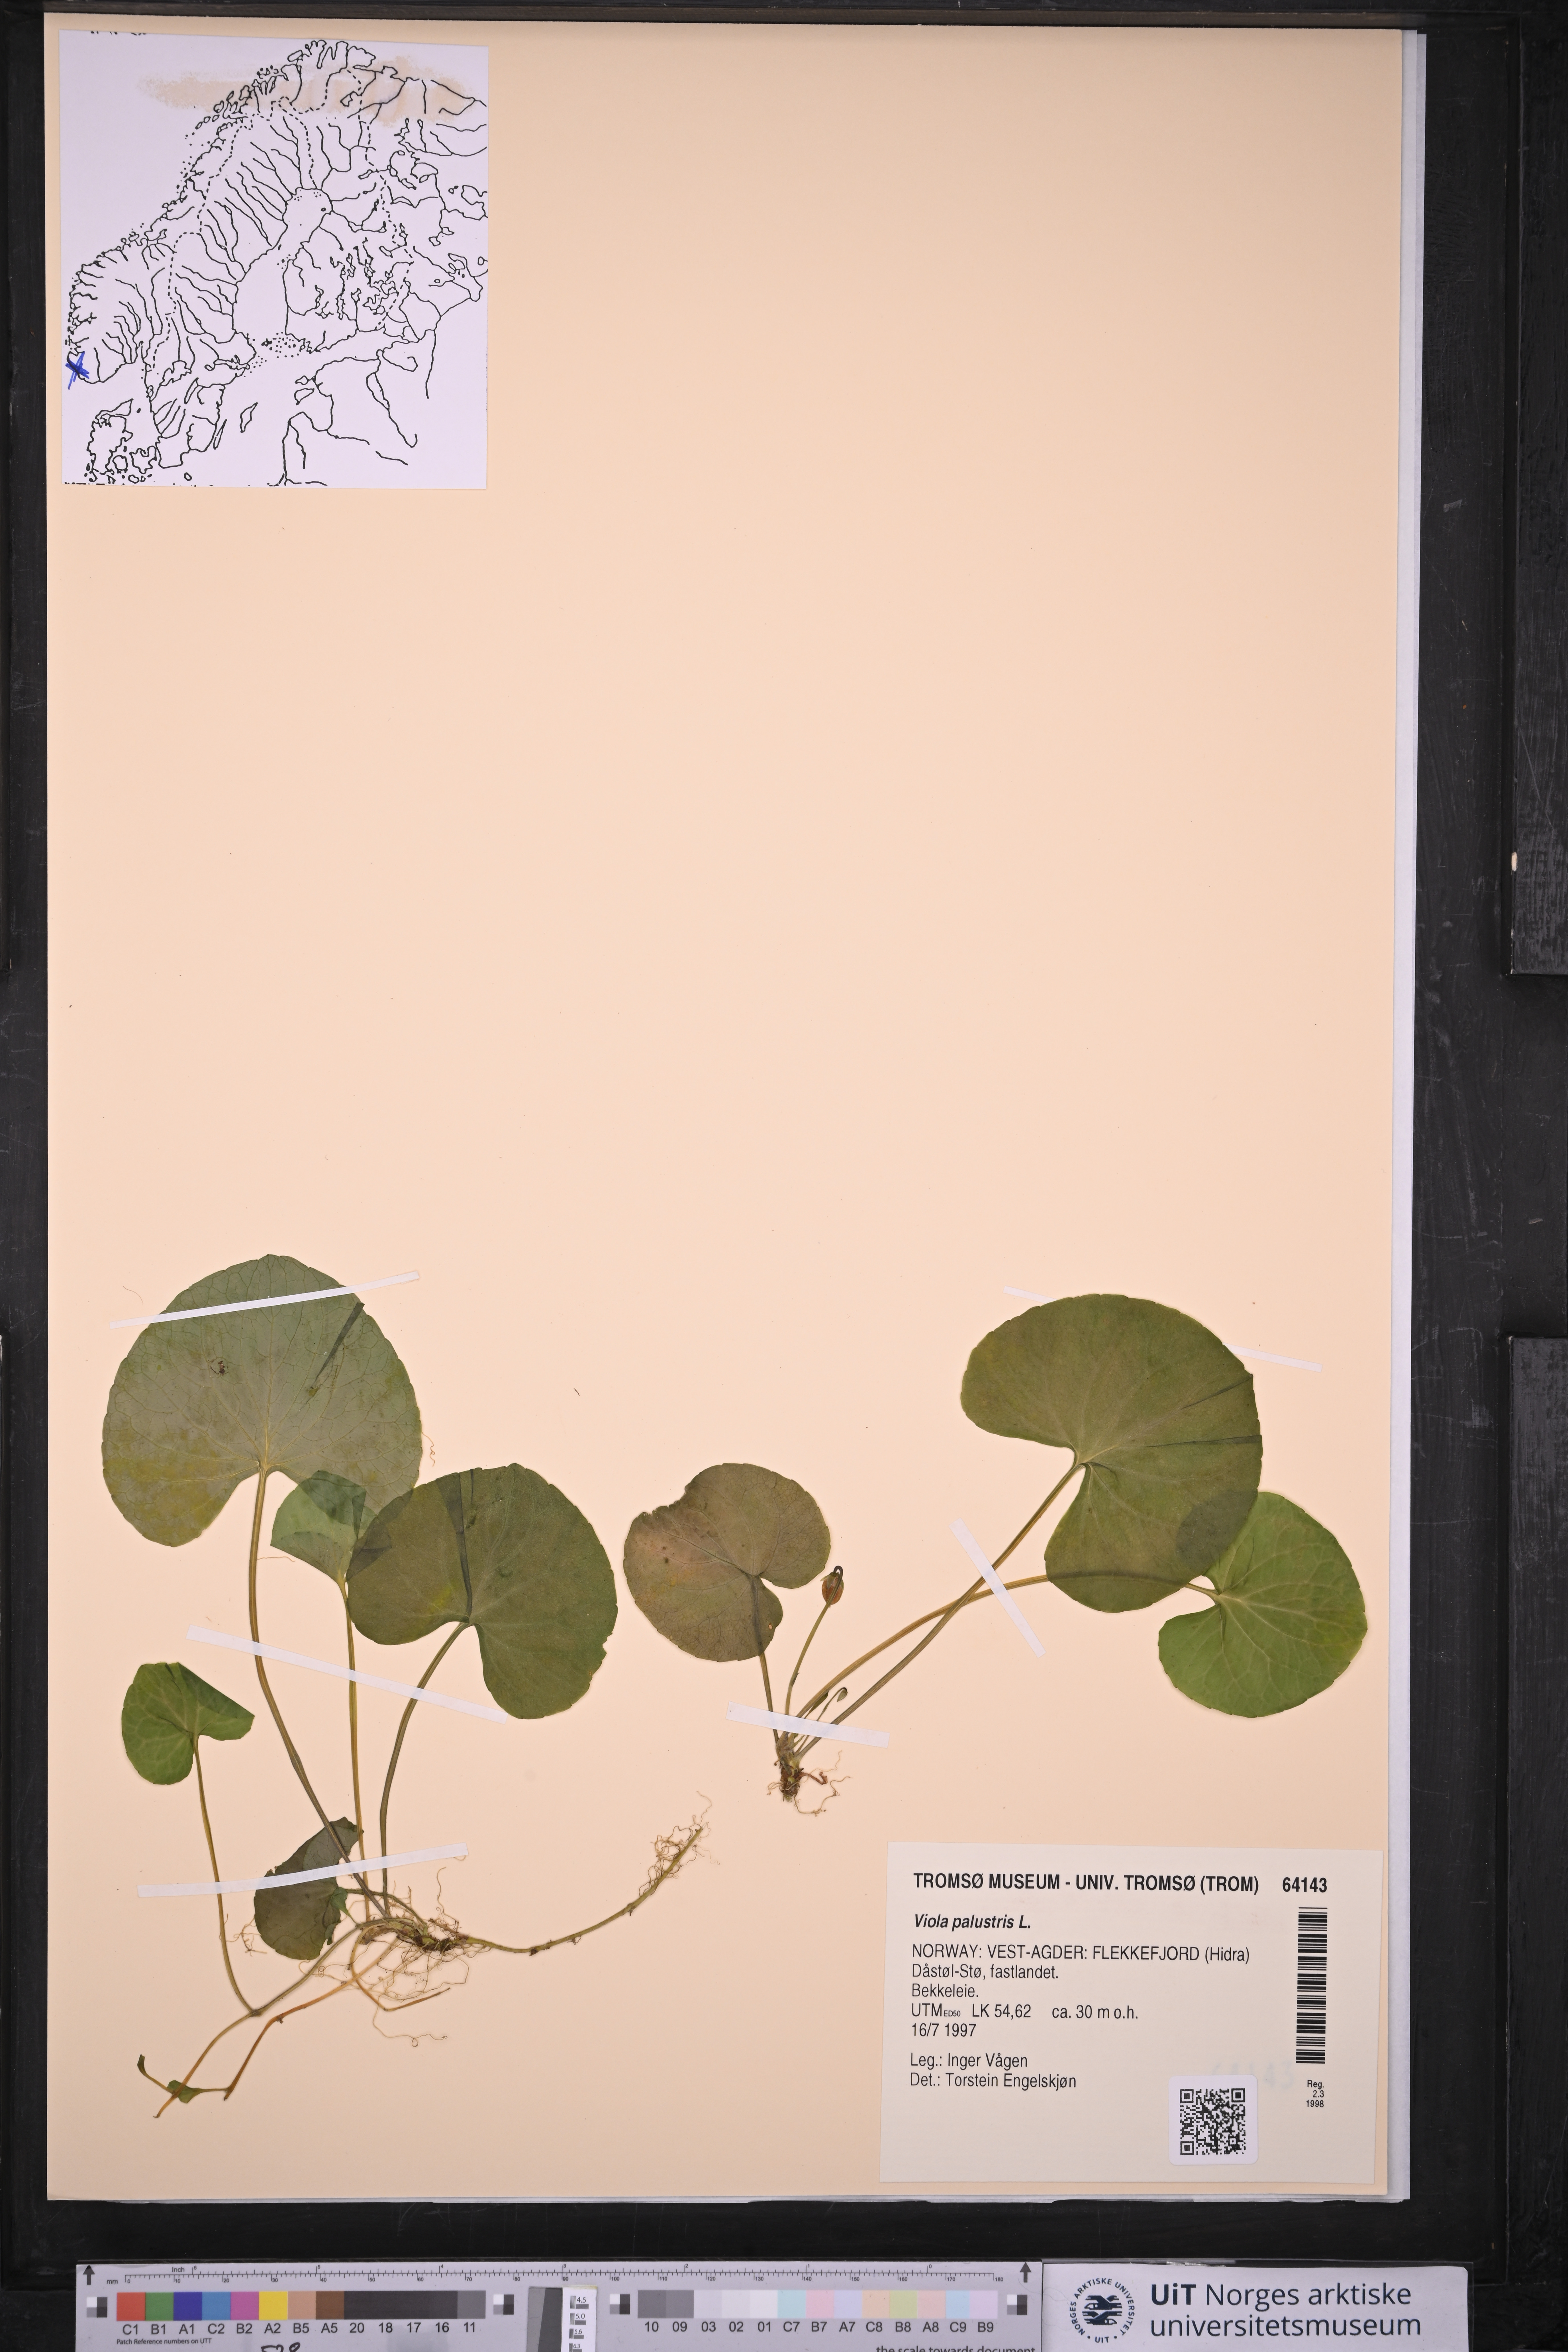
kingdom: Plantae
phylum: Tracheophyta
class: Magnoliopsida
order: Malpighiales
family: Violaceae
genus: Viola
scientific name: Viola palustris
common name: Marsh violet
